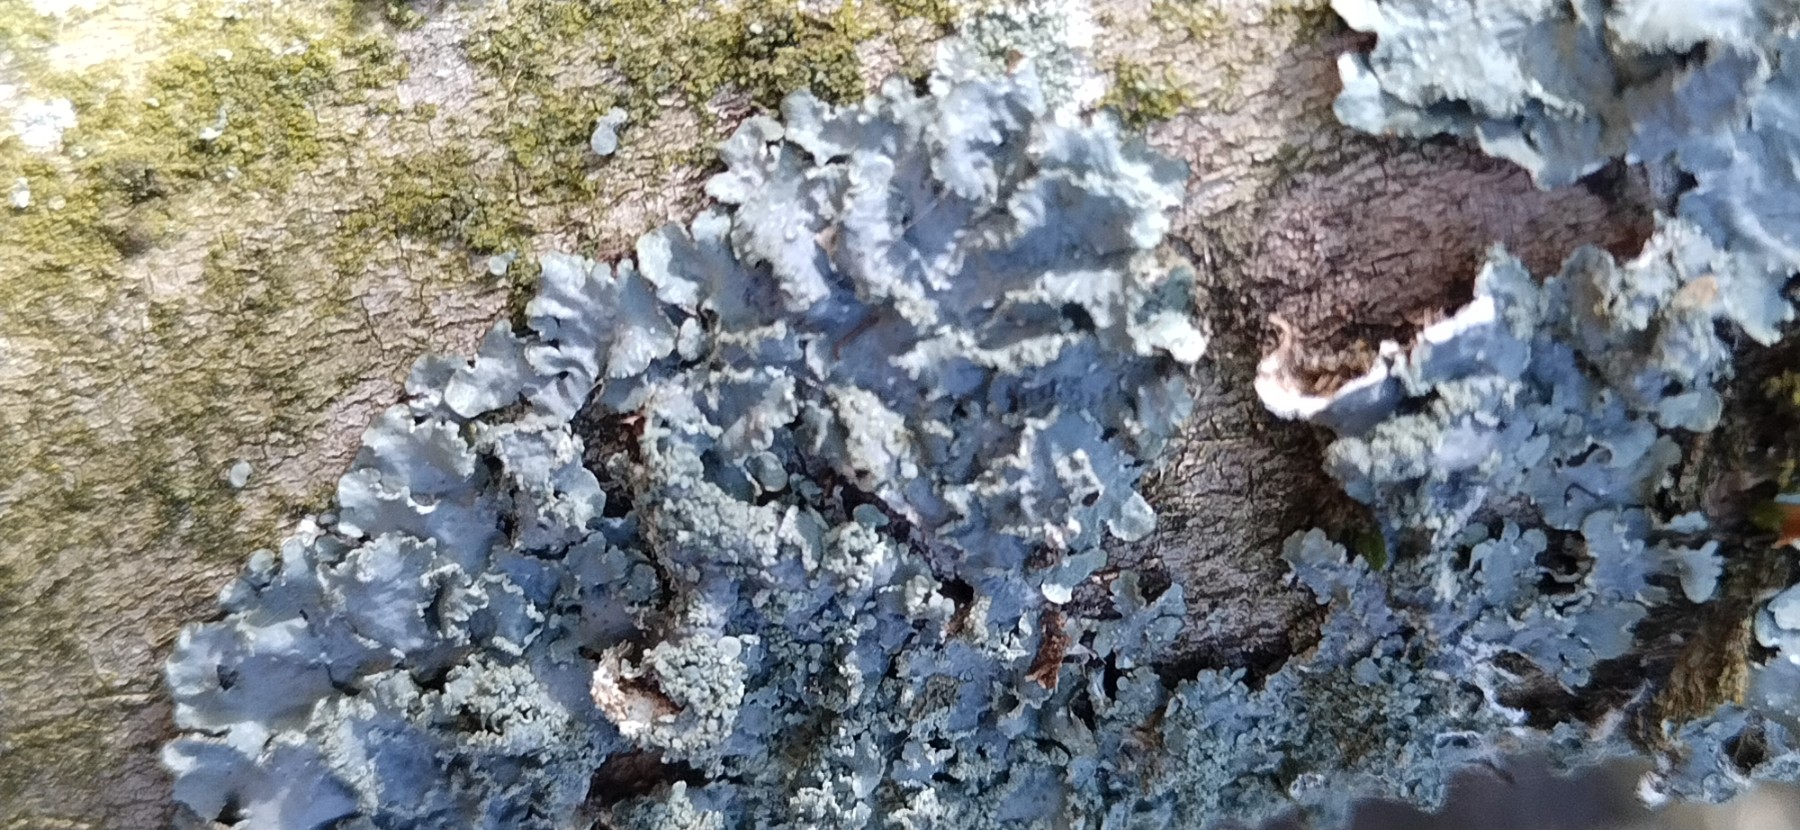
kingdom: Fungi
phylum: Ascomycota
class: Lecanoromycetes
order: Lecanorales
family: Parmeliaceae
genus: Punctelia
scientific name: Punctelia subrudecta
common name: punkt-skållav
